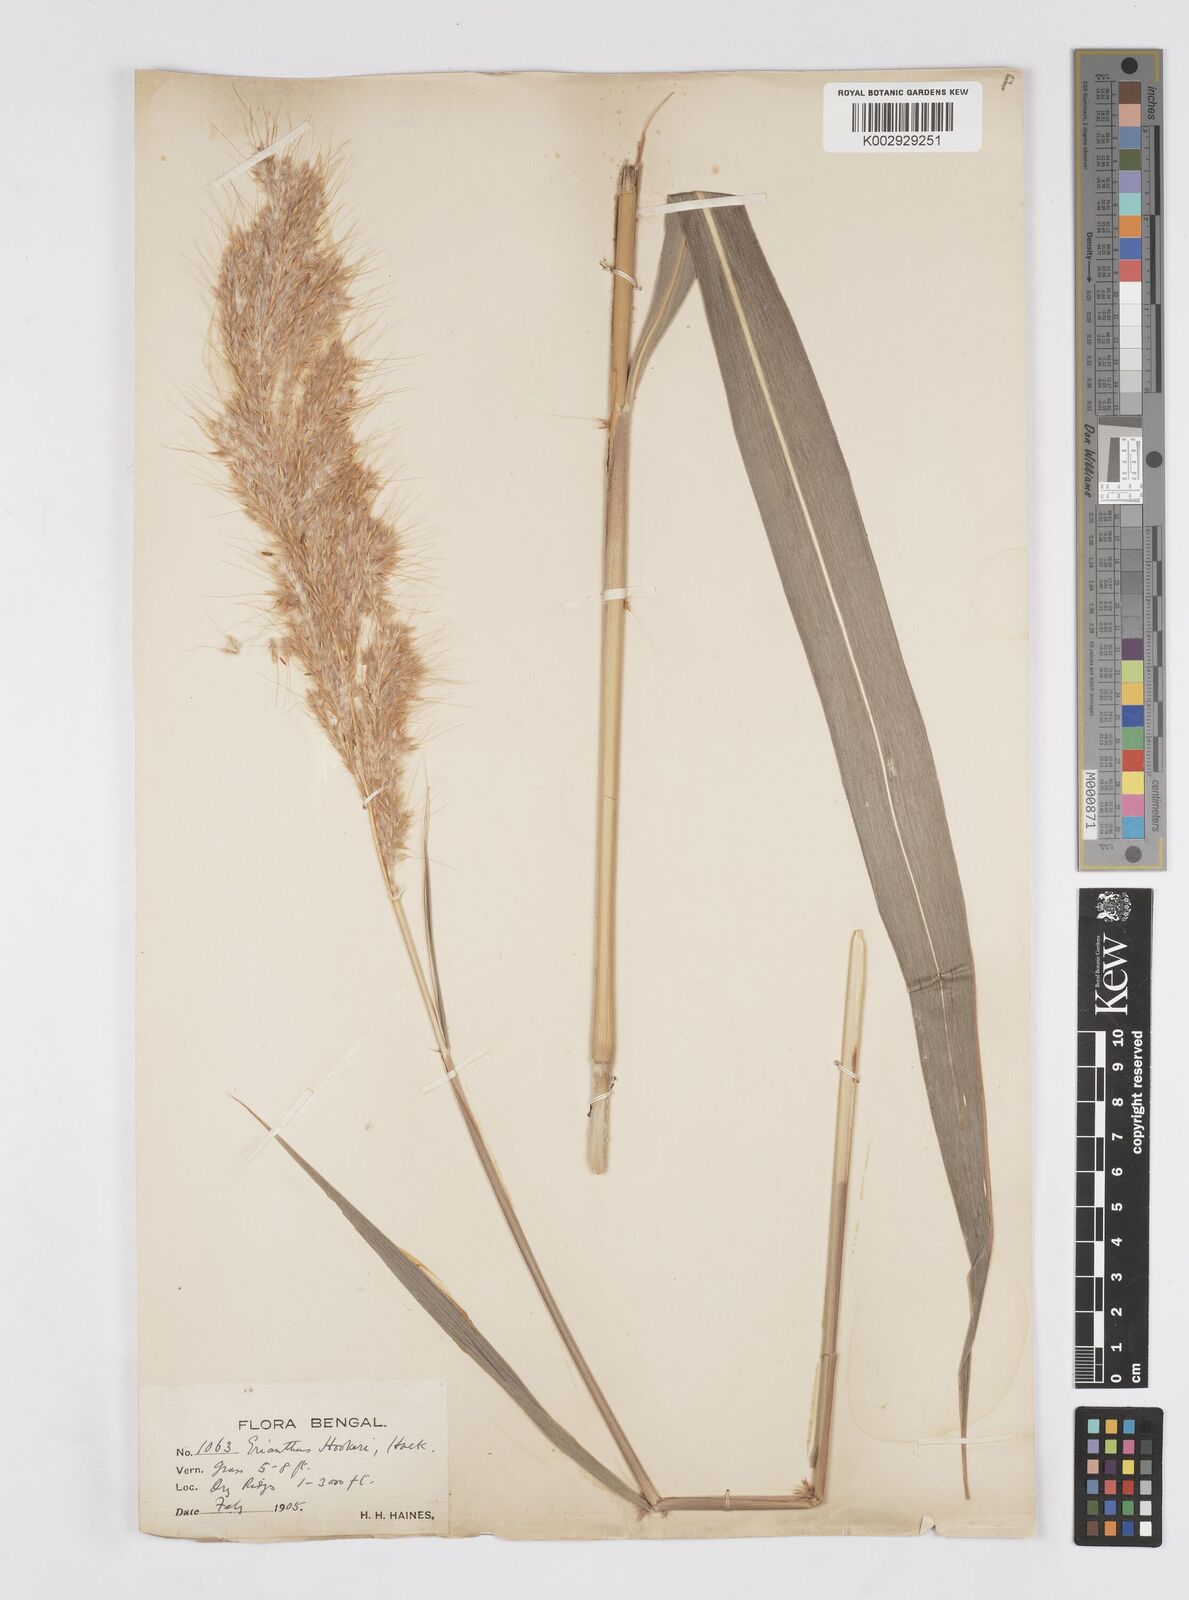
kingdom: Plantae
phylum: Tracheophyta
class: Liliopsida
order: Poales
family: Poaceae
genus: Saccharum
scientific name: Saccharum longesetosum
